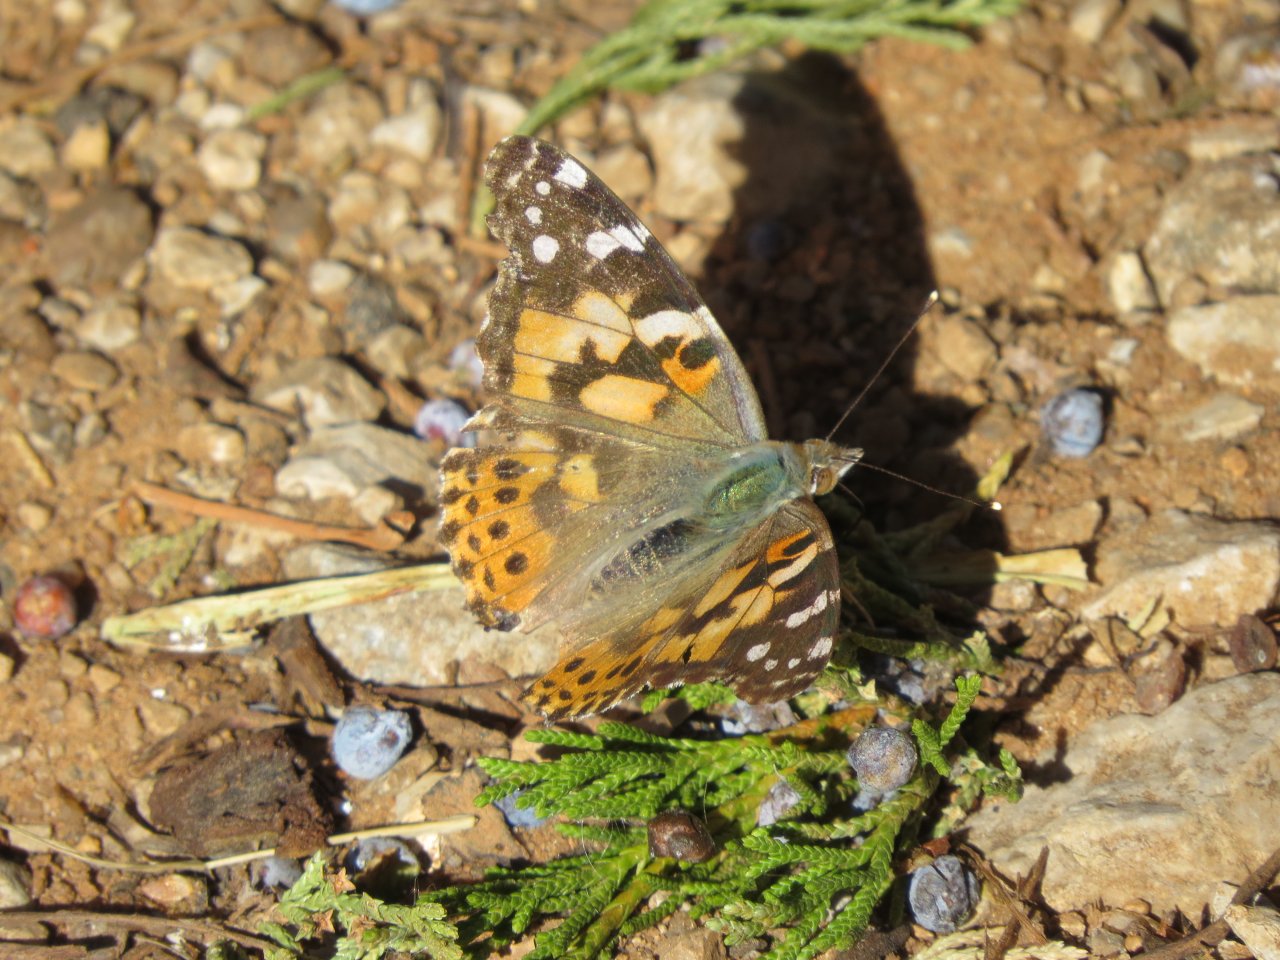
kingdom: Animalia
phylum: Arthropoda
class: Insecta
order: Lepidoptera
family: Nymphalidae
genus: Vanessa
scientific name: Vanessa cardui
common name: Painted Lady
